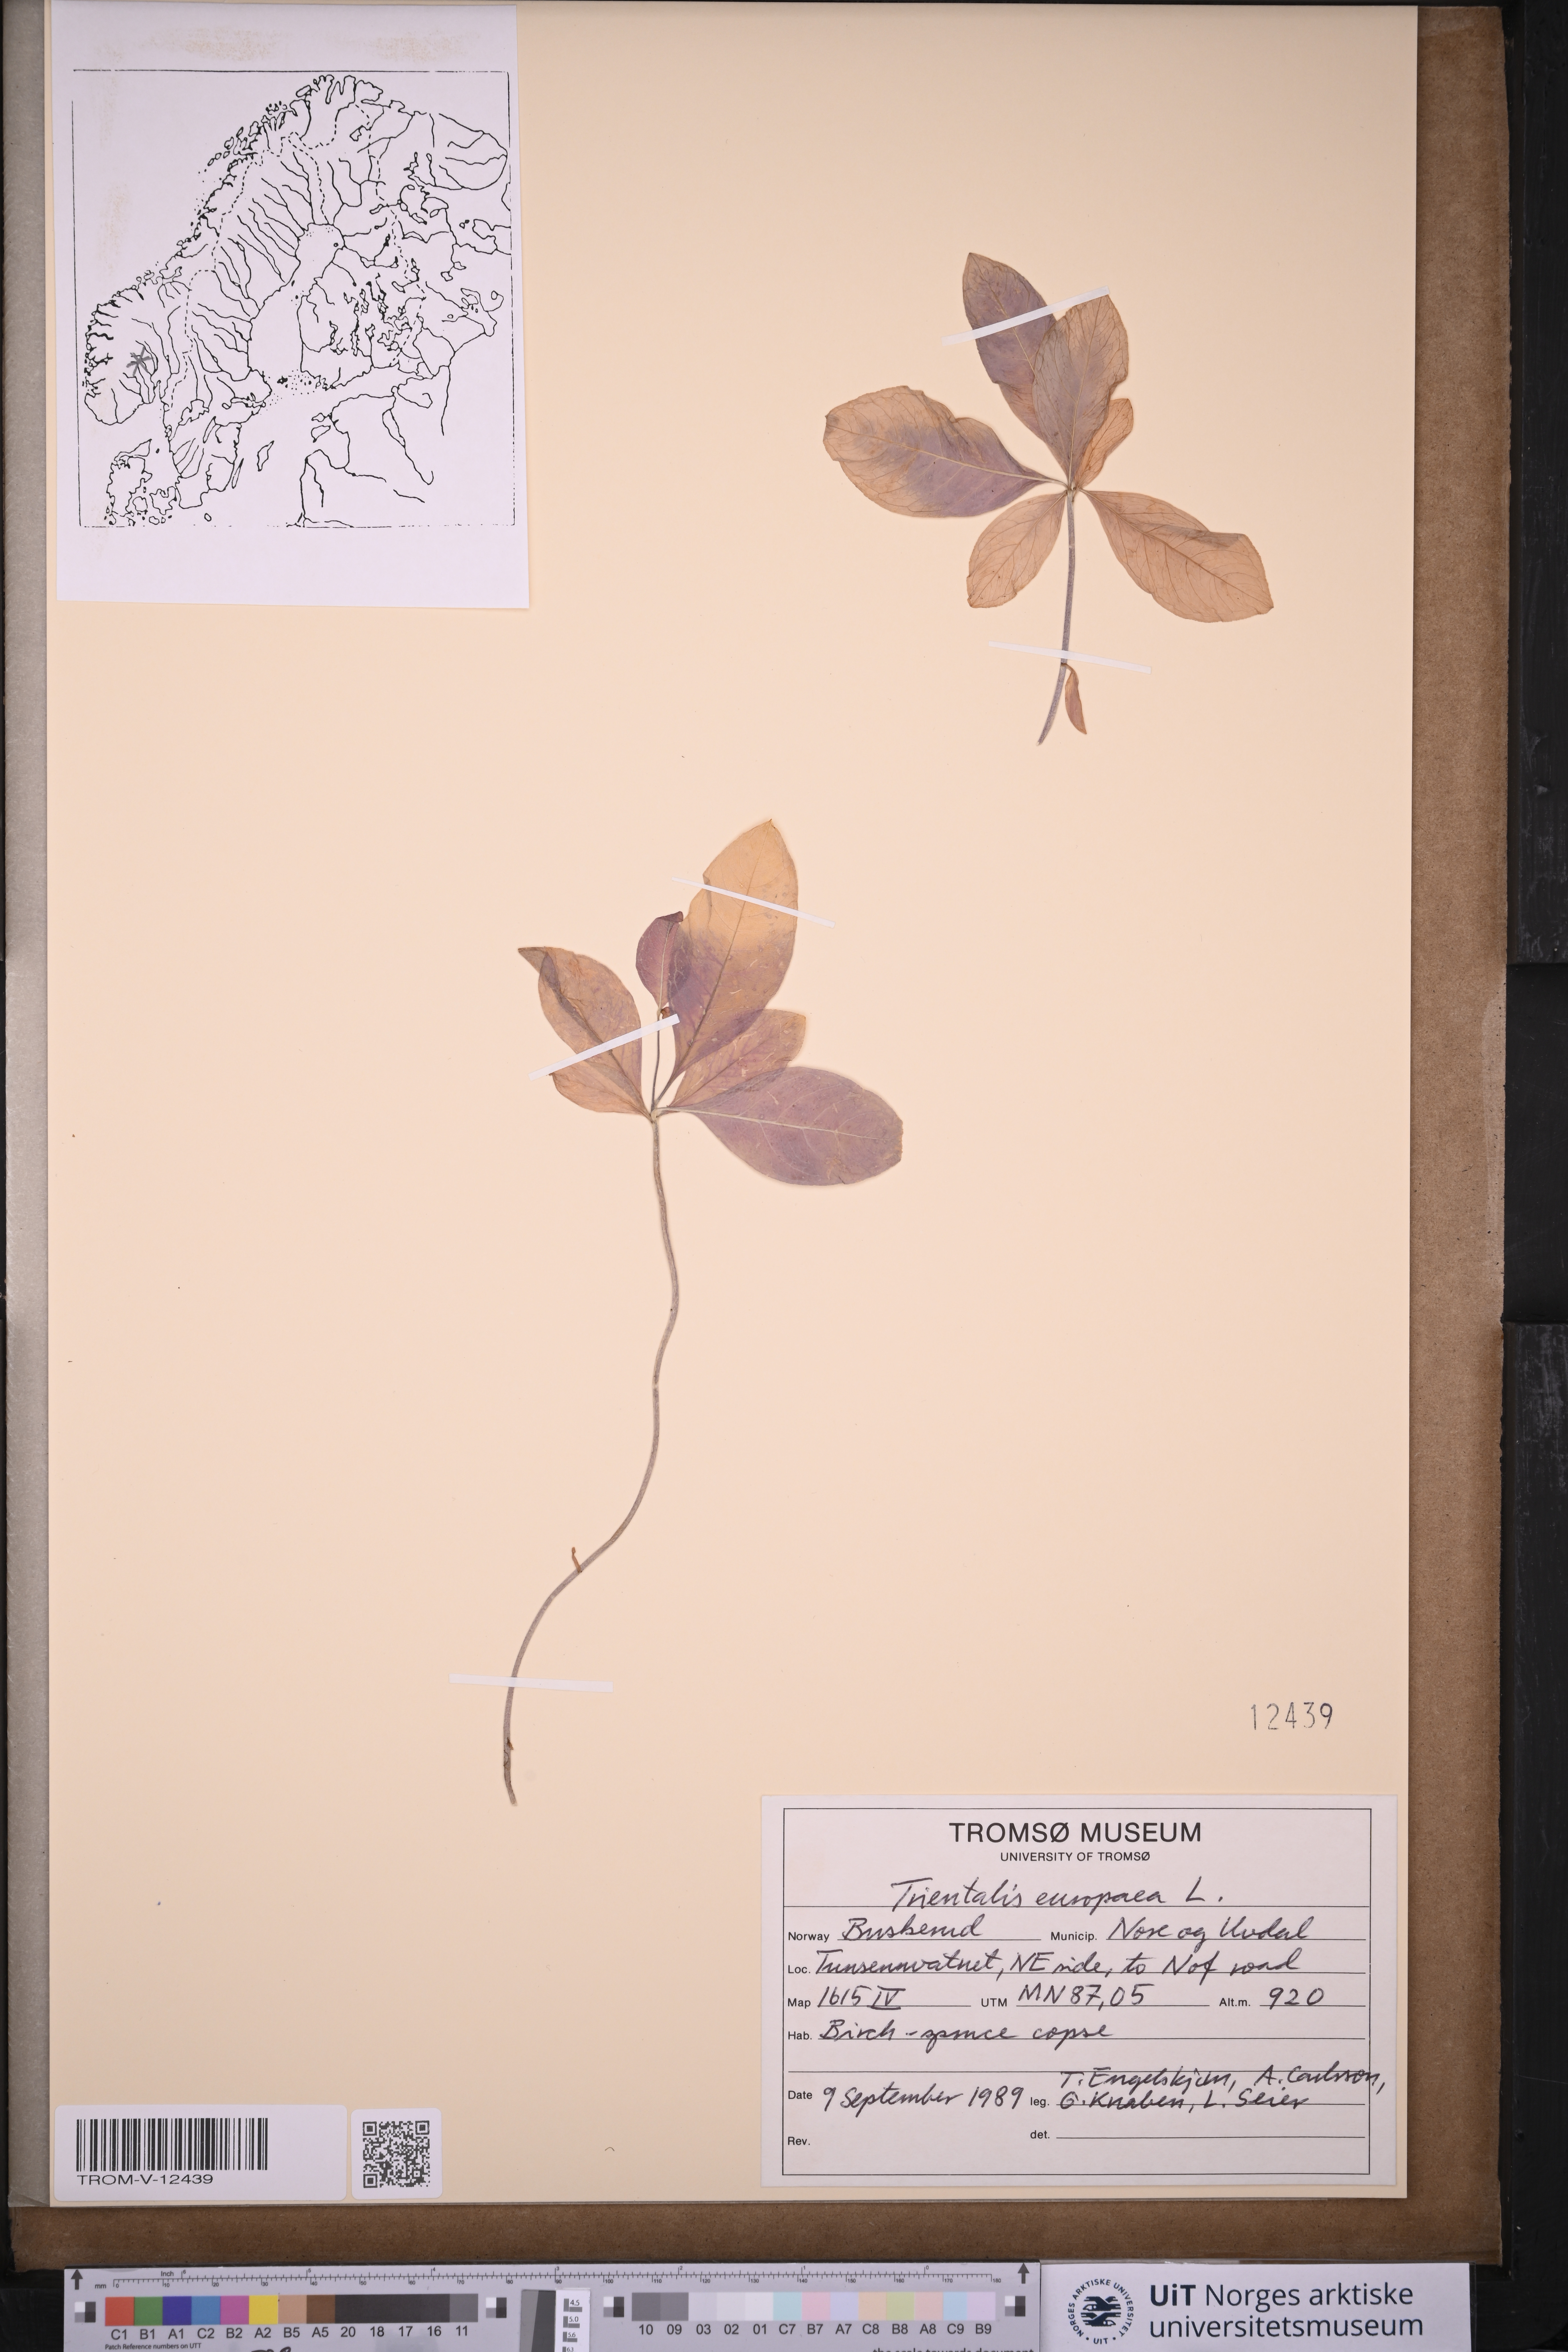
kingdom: Plantae
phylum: Tracheophyta
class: Magnoliopsida
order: Ericales
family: Primulaceae
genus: Lysimachia
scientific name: Lysimachia europaea
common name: Arctic starflower
